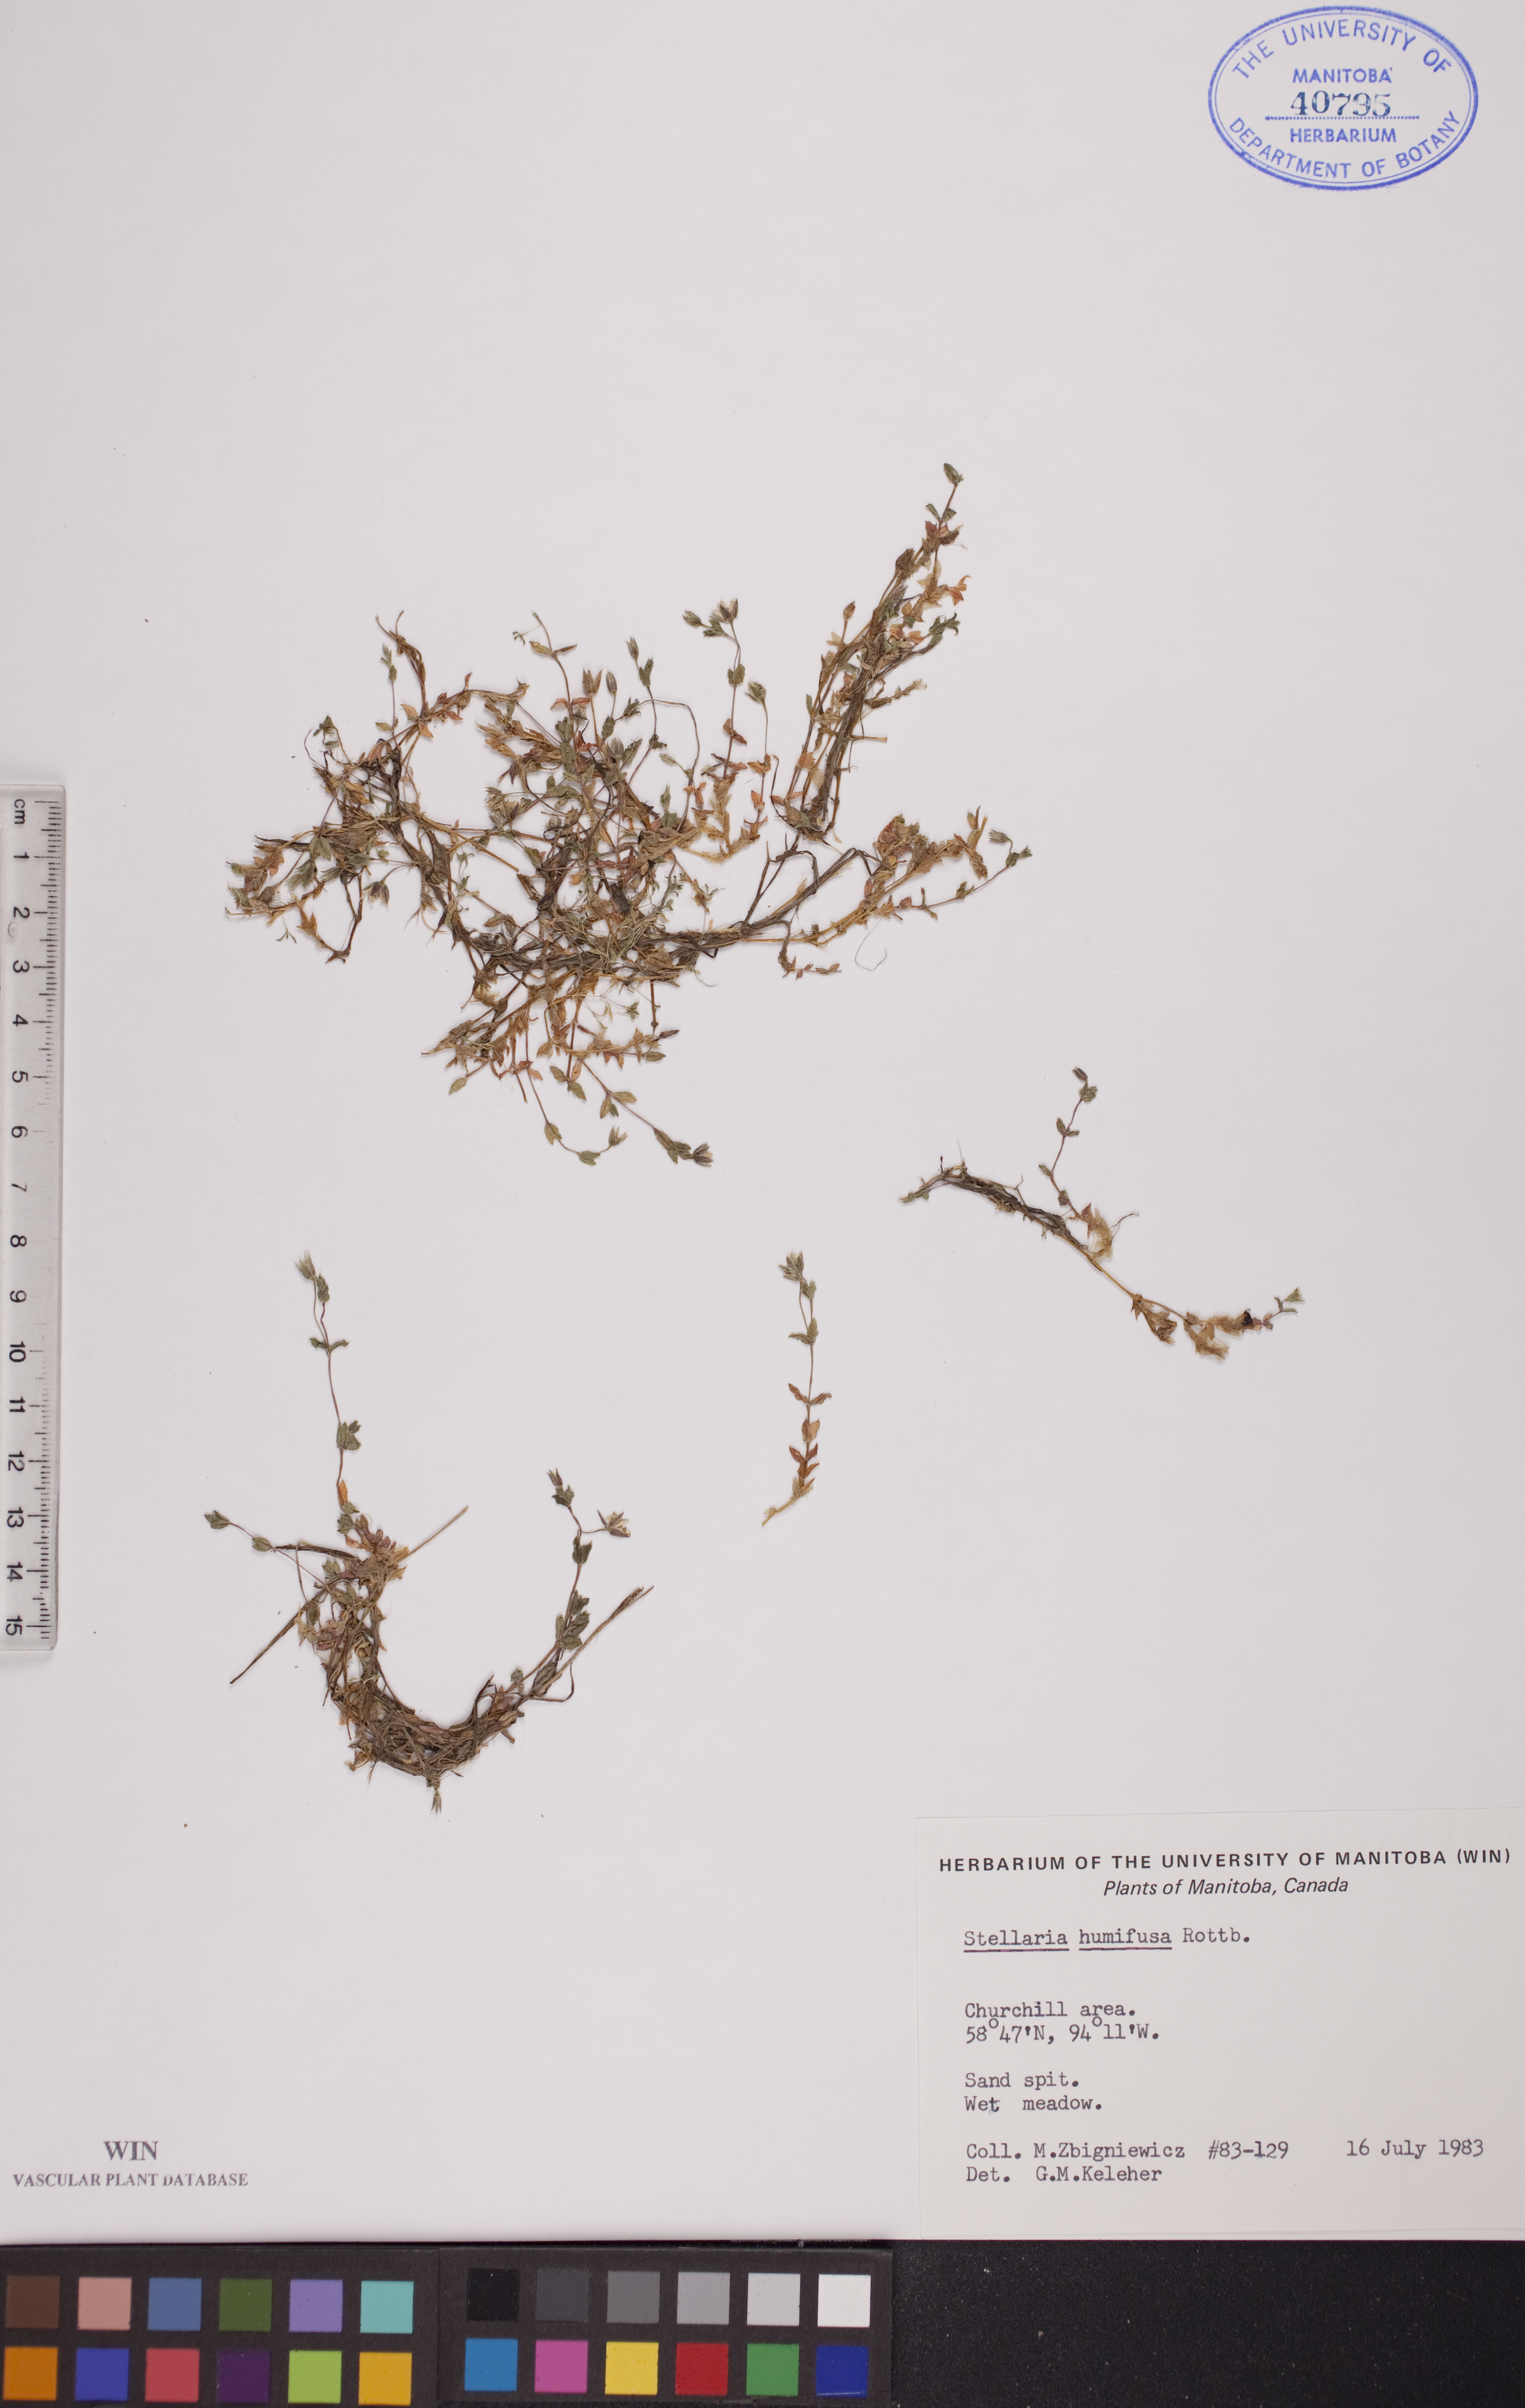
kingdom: Plantae
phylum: Tracheophyta
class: Magnoliopsida
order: Caryophyllales
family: Caryophyllaceae
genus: Stellaria
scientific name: Stellaria humifusa
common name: Creeping starwort
